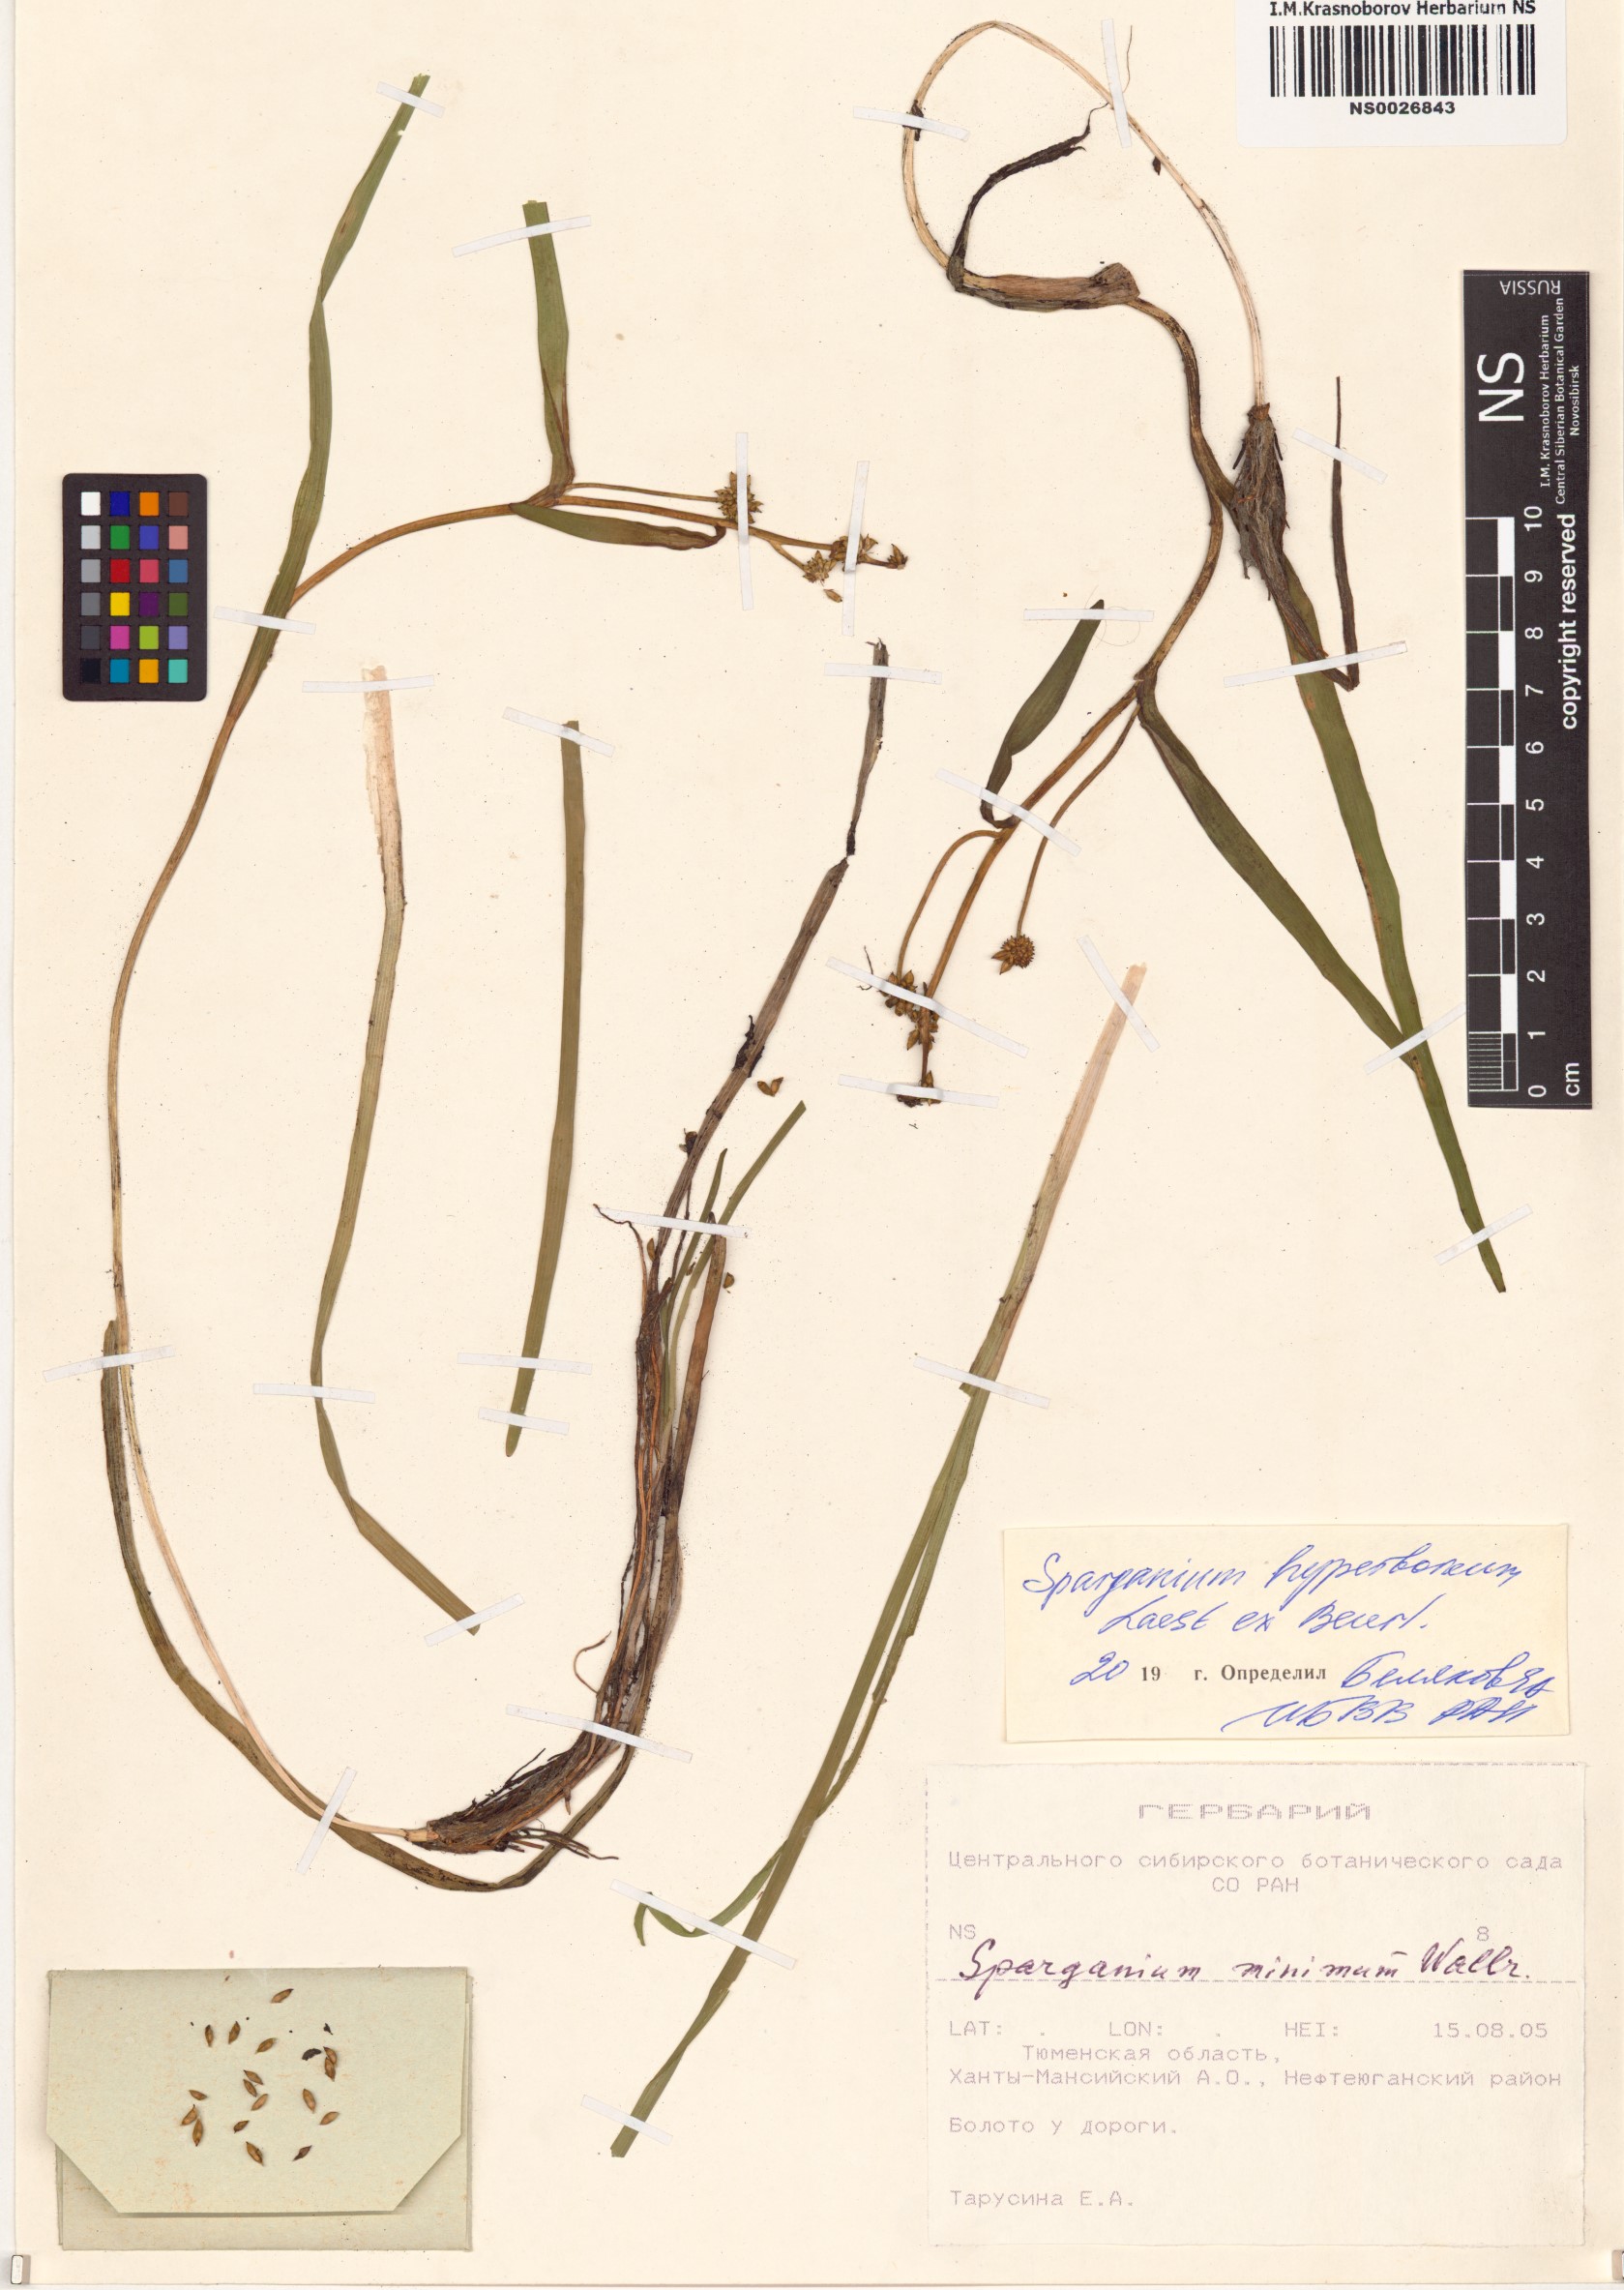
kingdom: Plantae
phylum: Tracheophyta
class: Liliopsida
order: Poales
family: Typhaceae
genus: Sparganium
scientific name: Sparganium hyperboreum
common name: Arctic burreed
